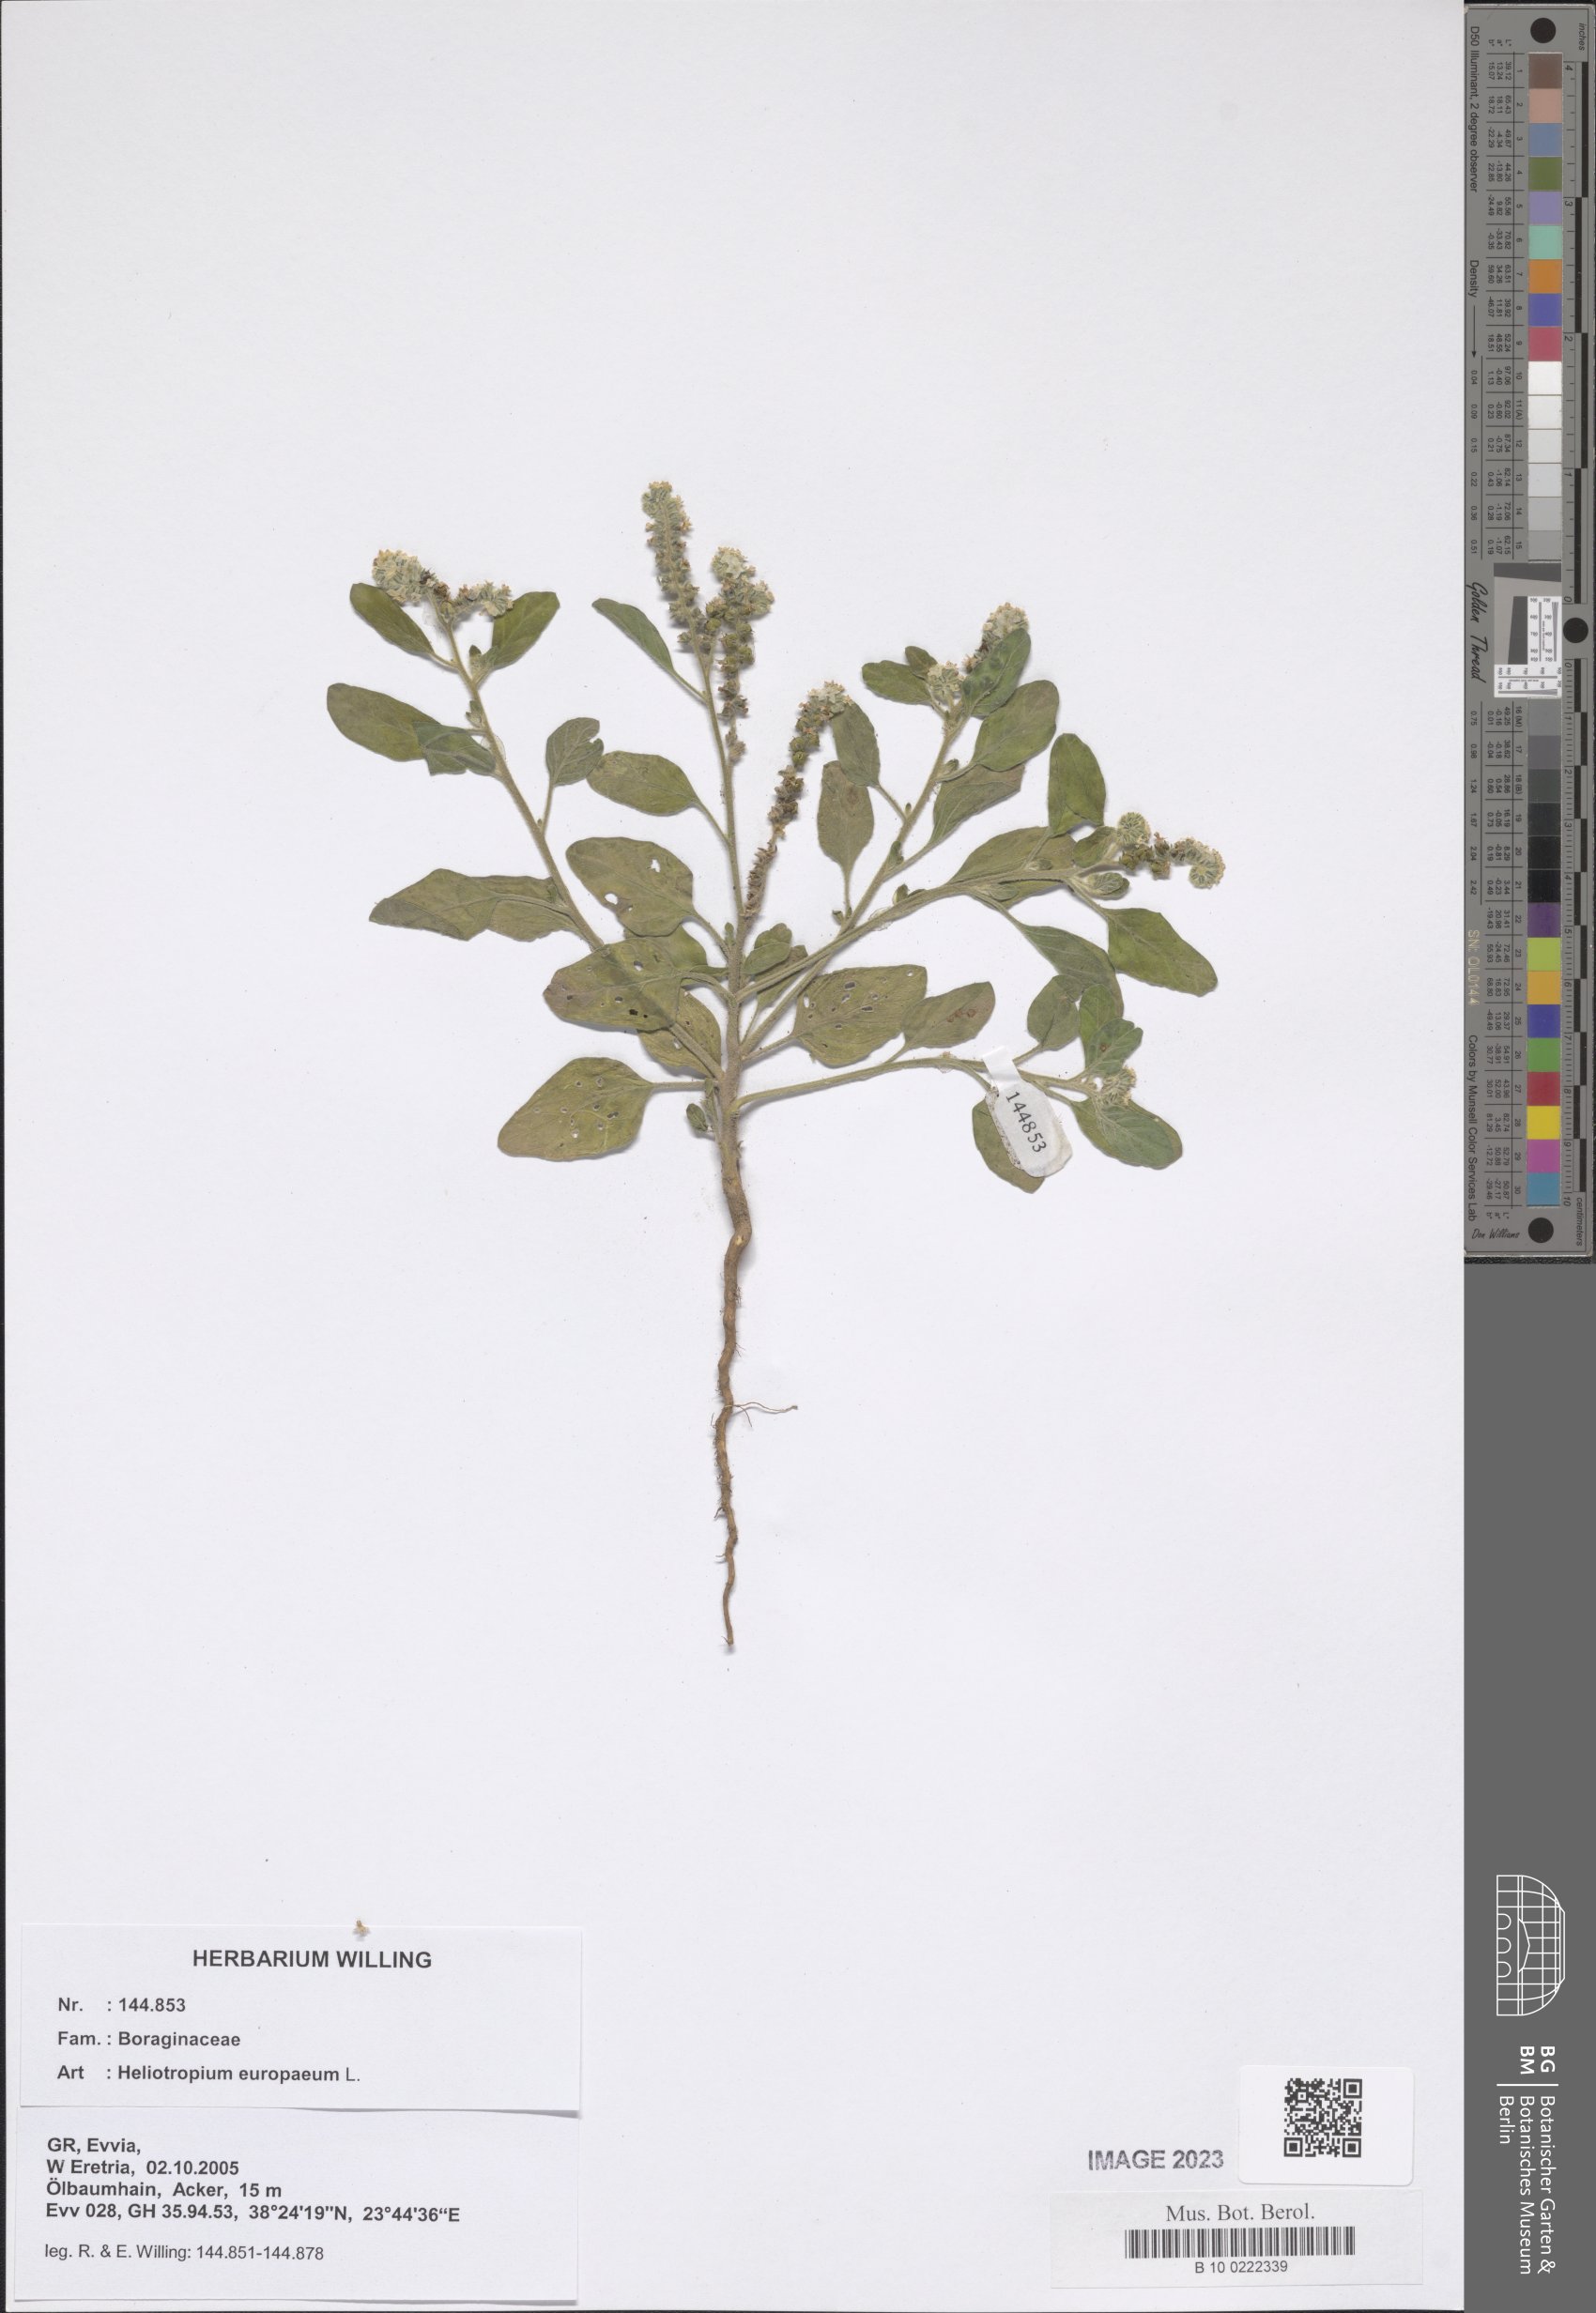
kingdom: Plantae
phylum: Tracheophyta
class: Magnoliopsida
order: Boraginales
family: Heliotropiaceae
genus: Heliotropium
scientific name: Heliotropium europaeum
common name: European heliotrope
